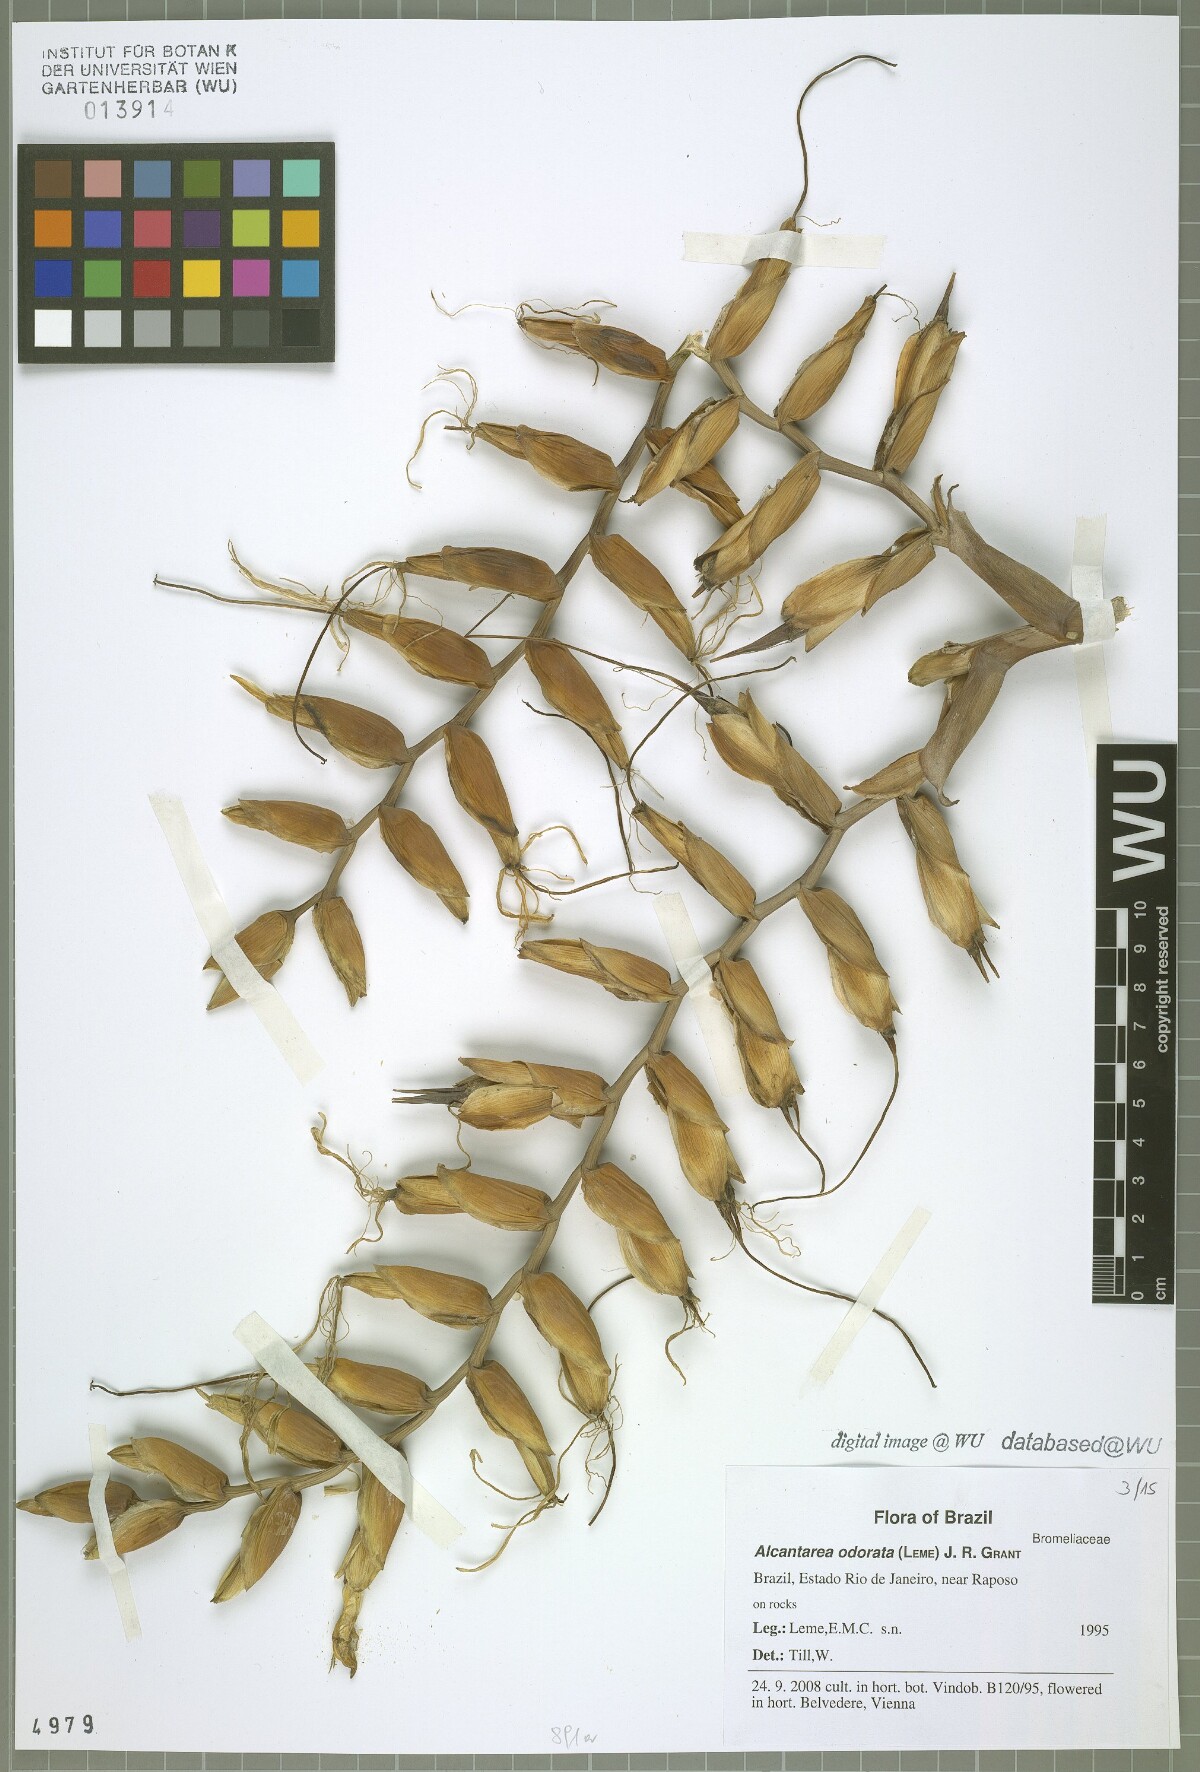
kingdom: Plantae
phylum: Tracheophyta
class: Liliopsida
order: Poales
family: Bromeliaceae
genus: Alcantarea
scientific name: Alcantarea odorata
